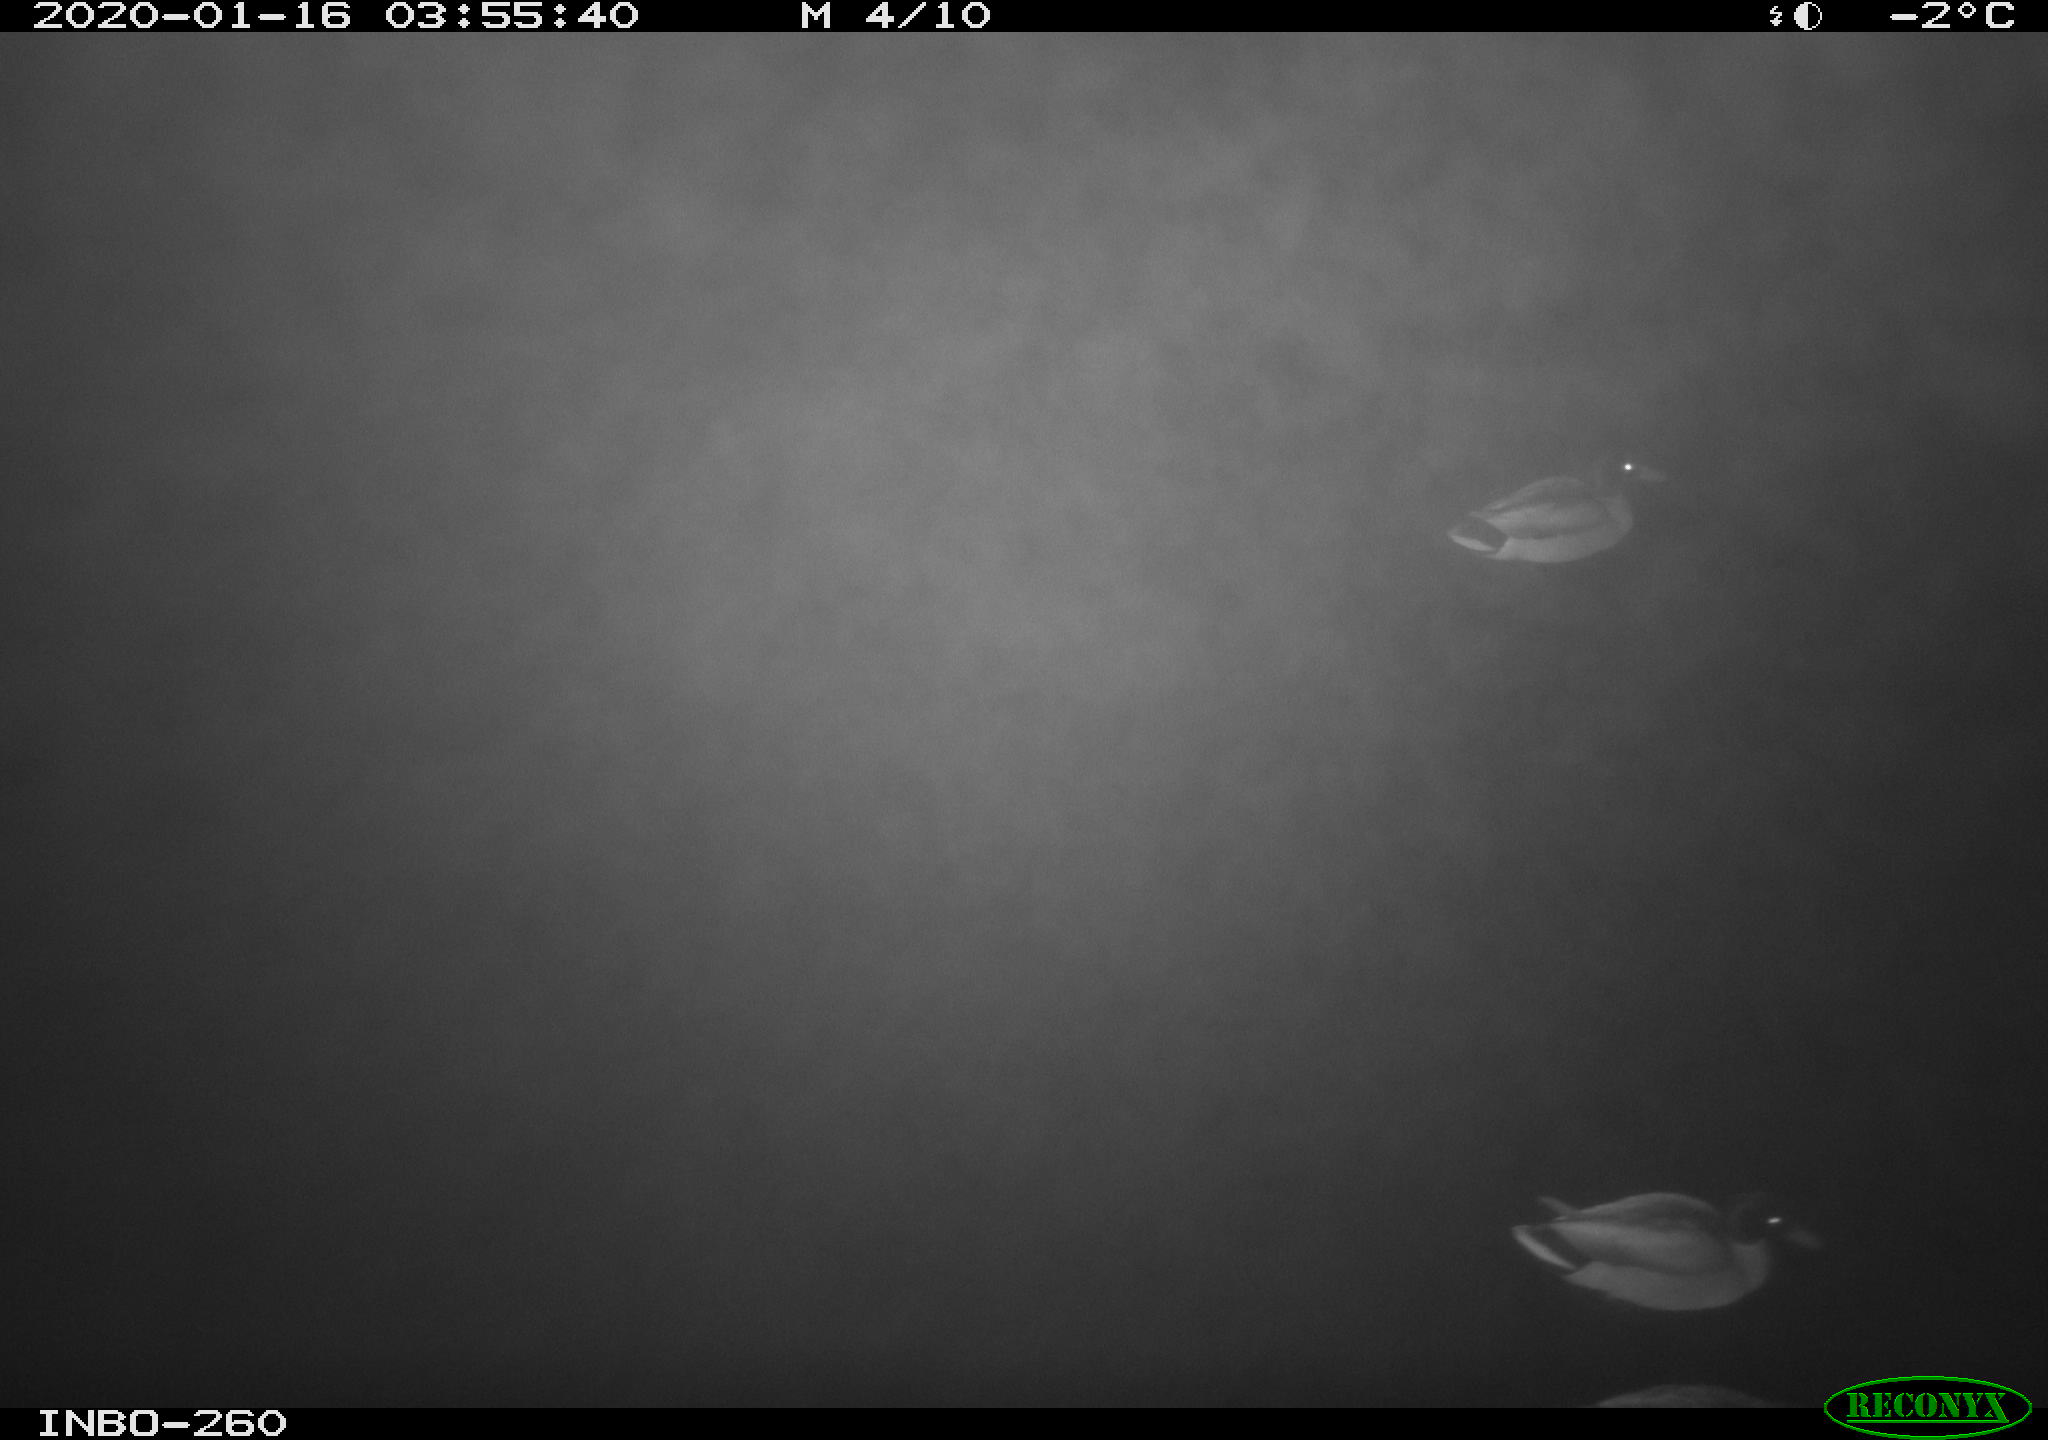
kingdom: Animalia
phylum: Chordata
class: Aves
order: Anseriformes
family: Anatidae
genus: Anas
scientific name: Anas platyrhynchos
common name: Mallard
